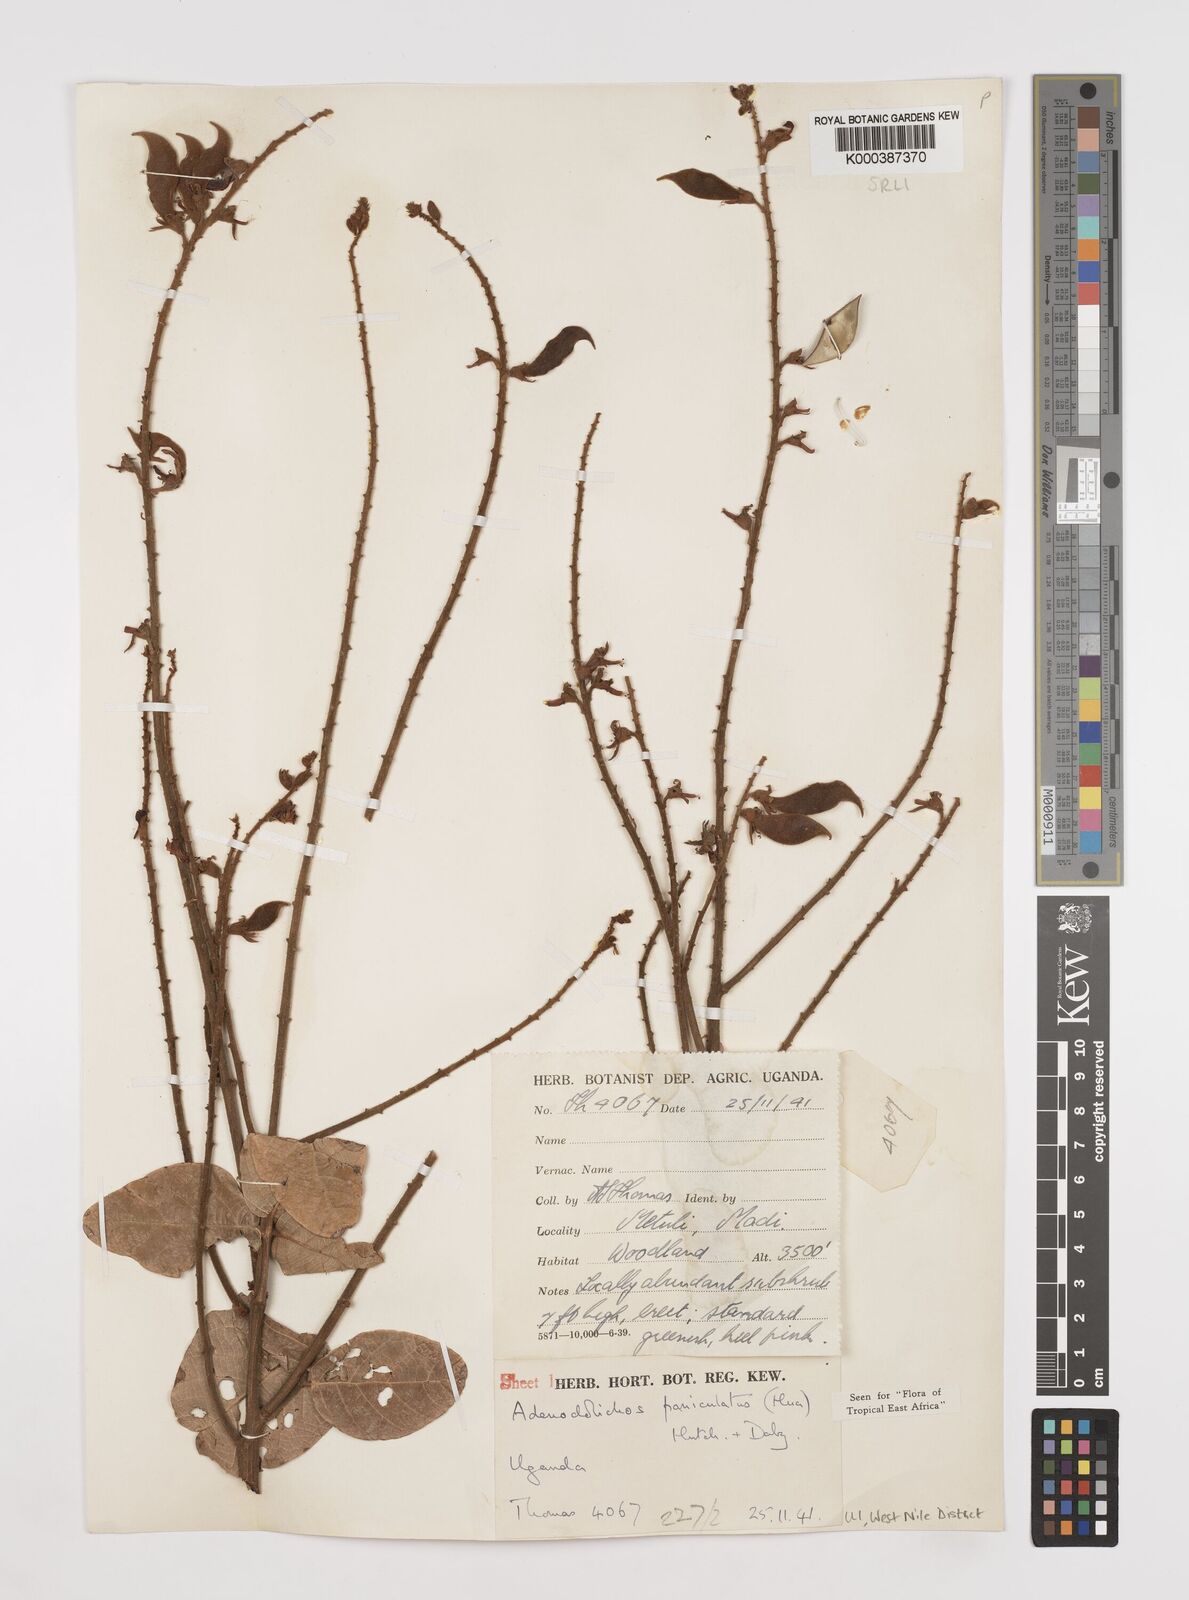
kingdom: Plantae
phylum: Tracheophyta
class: Magnoliopsida
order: Fabales
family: Fabaceae
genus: Adenodolichos
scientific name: Adenodolichos kaessneri
